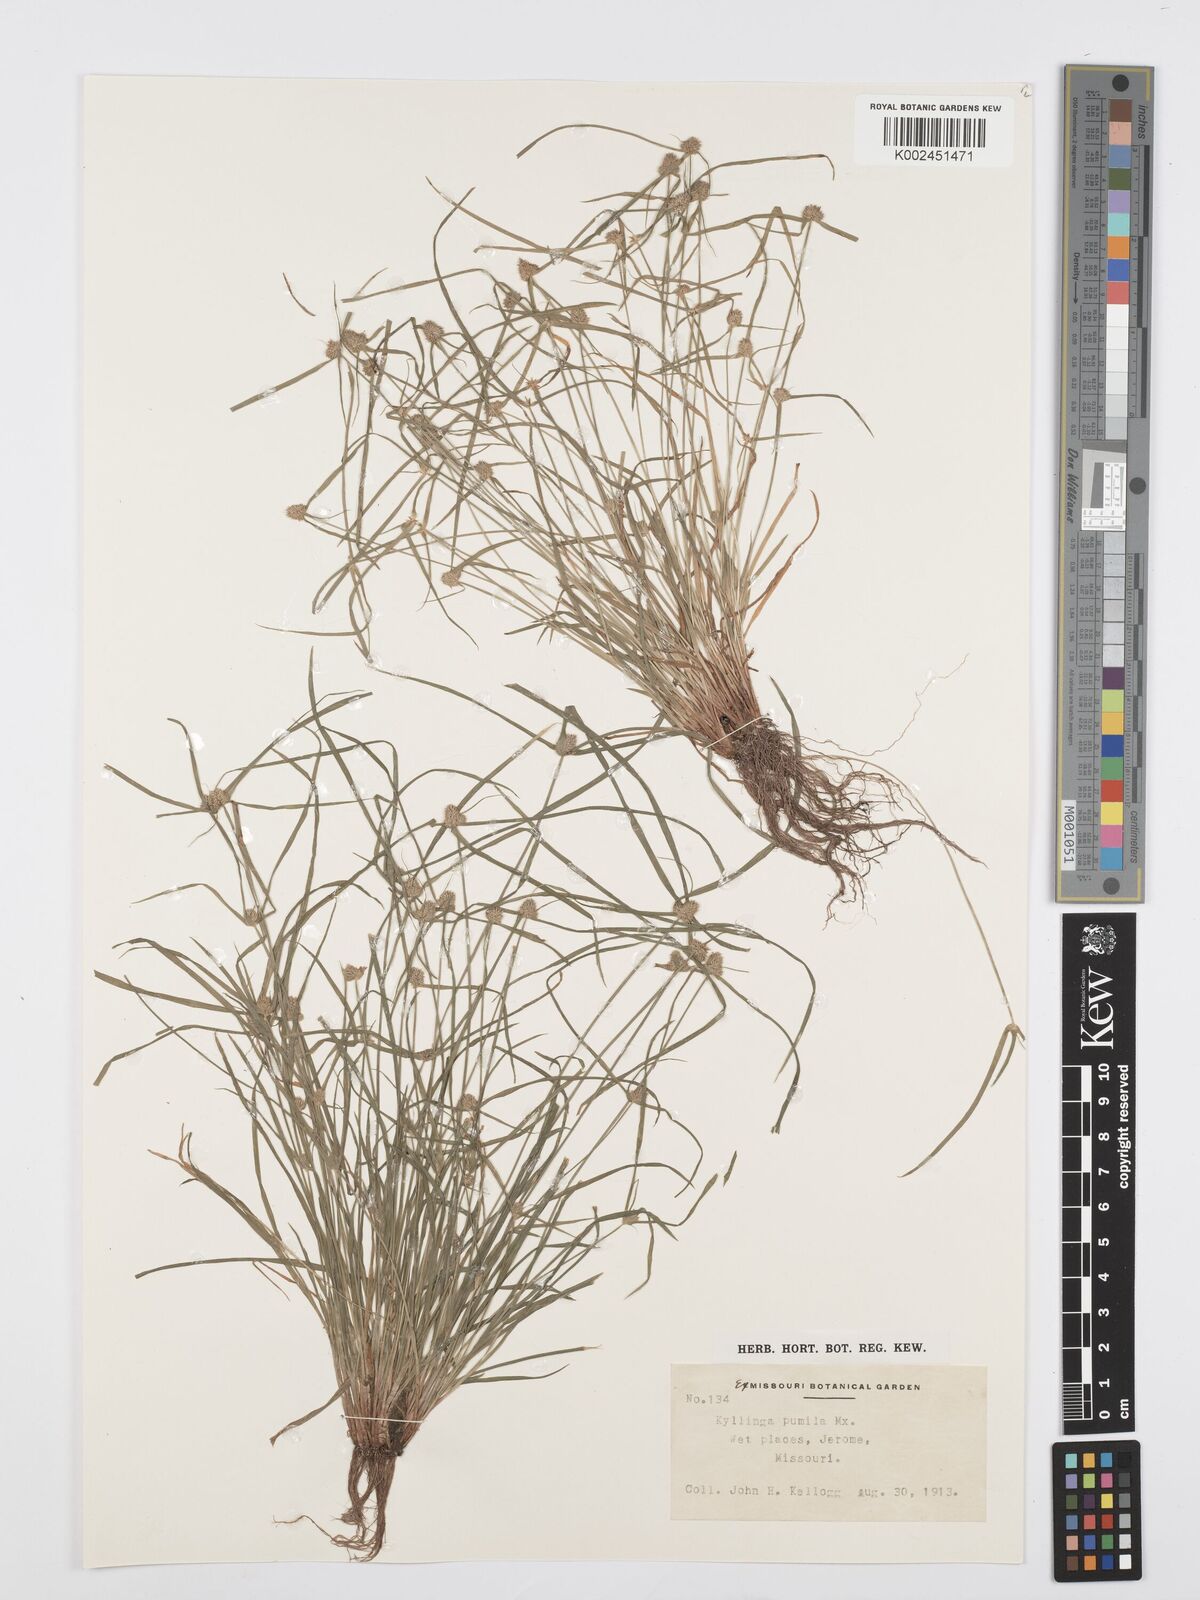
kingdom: Plantae
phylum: Tracheophyta
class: Liliopsida
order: Poales
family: Cyperaceae
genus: Cyperus
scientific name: Cyperus
